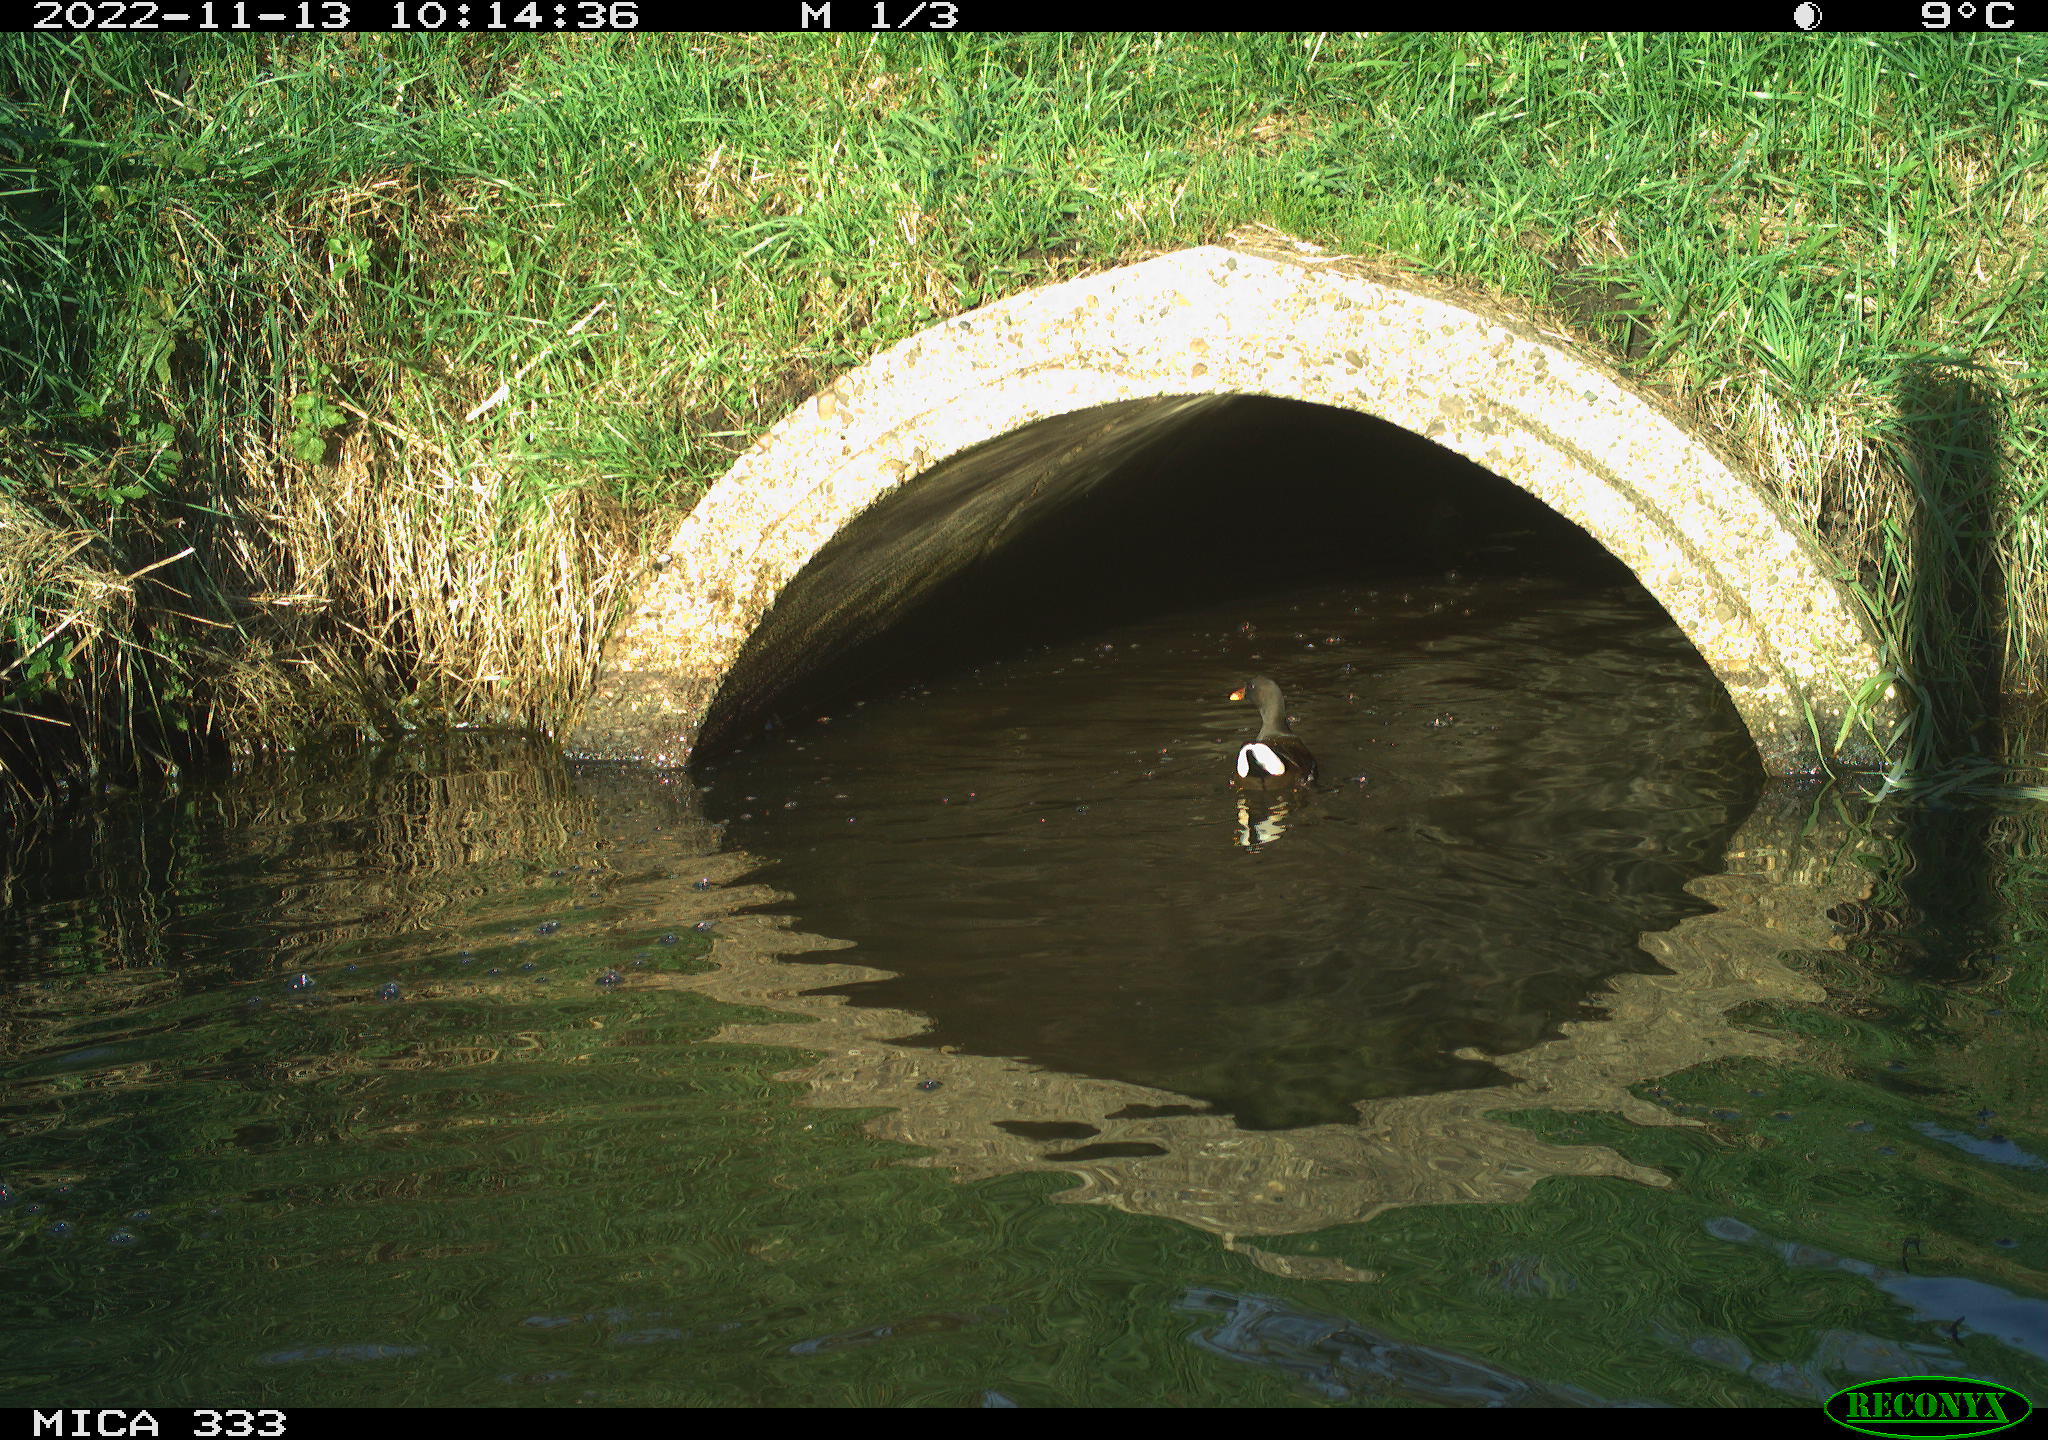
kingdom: Animalia
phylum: Chordata
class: Aves
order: Gruiformes
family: Rallidae
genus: Gallinula
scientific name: Gallinula chloropus
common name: Common moorhen
